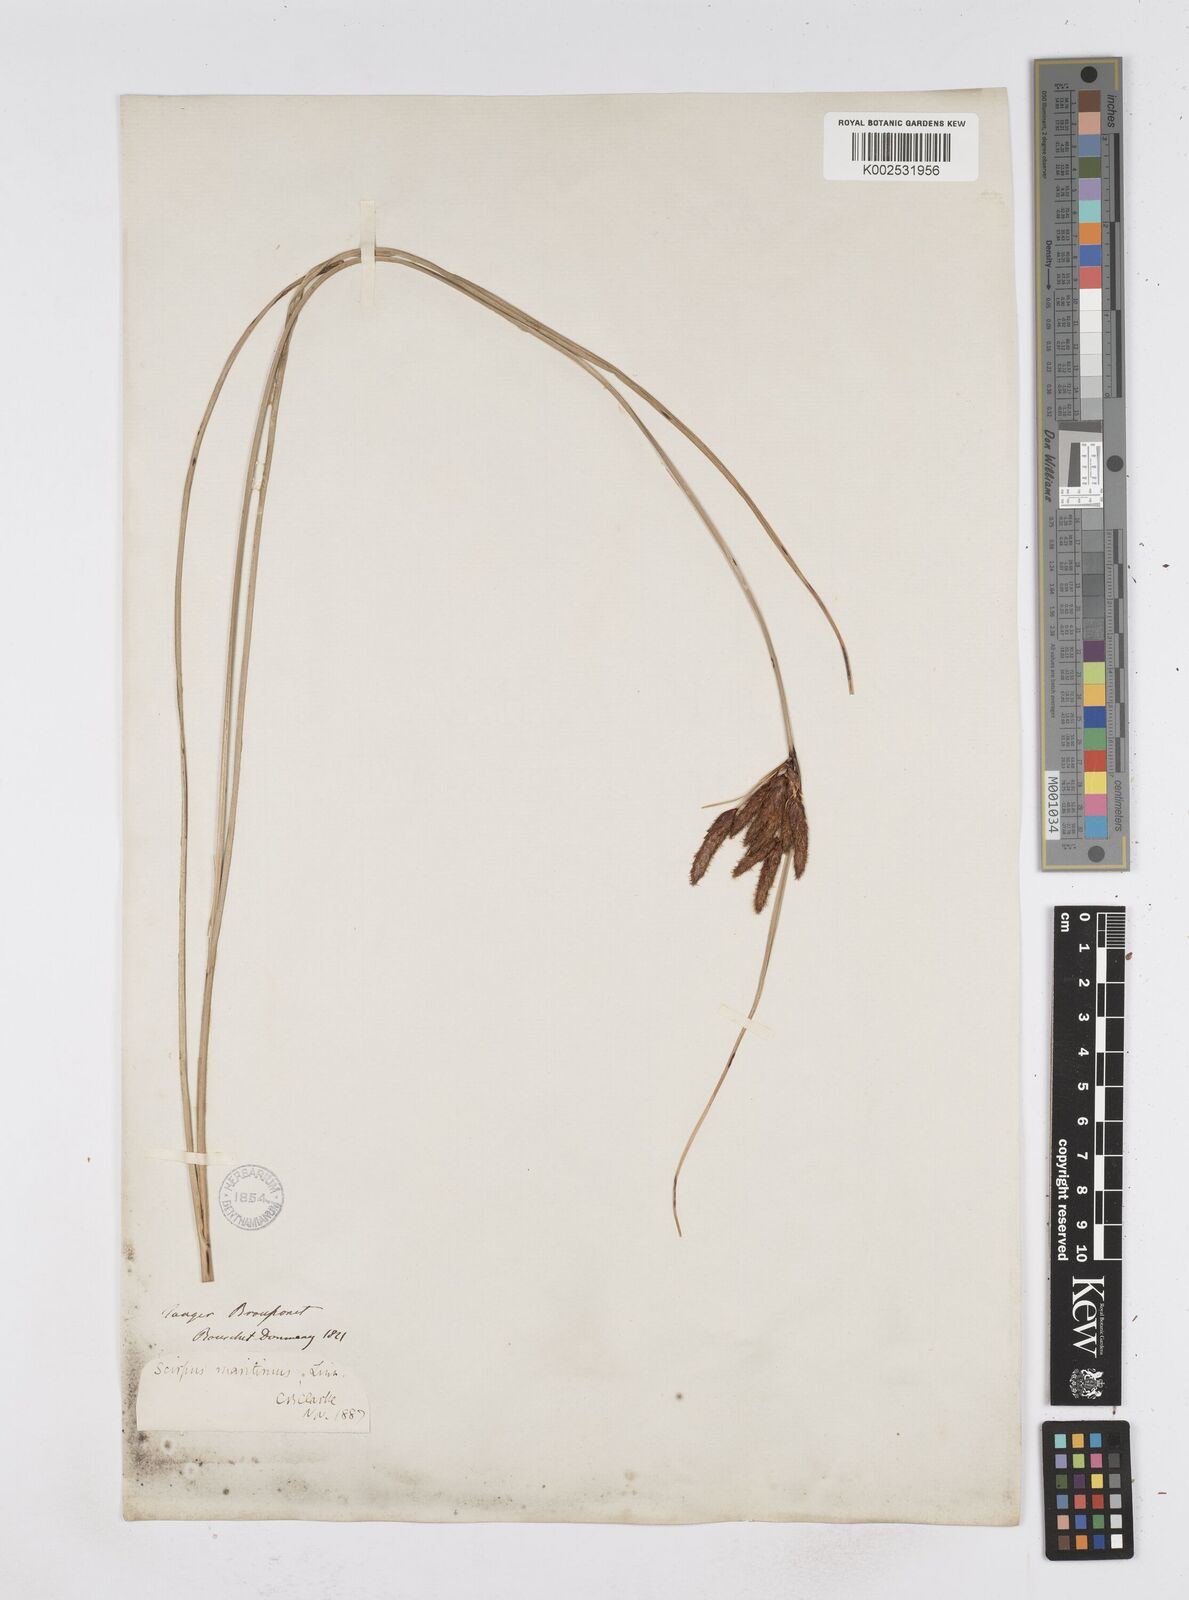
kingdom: Plantae
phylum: Tracheophyta
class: Liliopsida
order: Poales
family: Cyperaceae
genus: Bolboschoenus
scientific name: Bolboschoenus maritimus
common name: Sea club-rush
